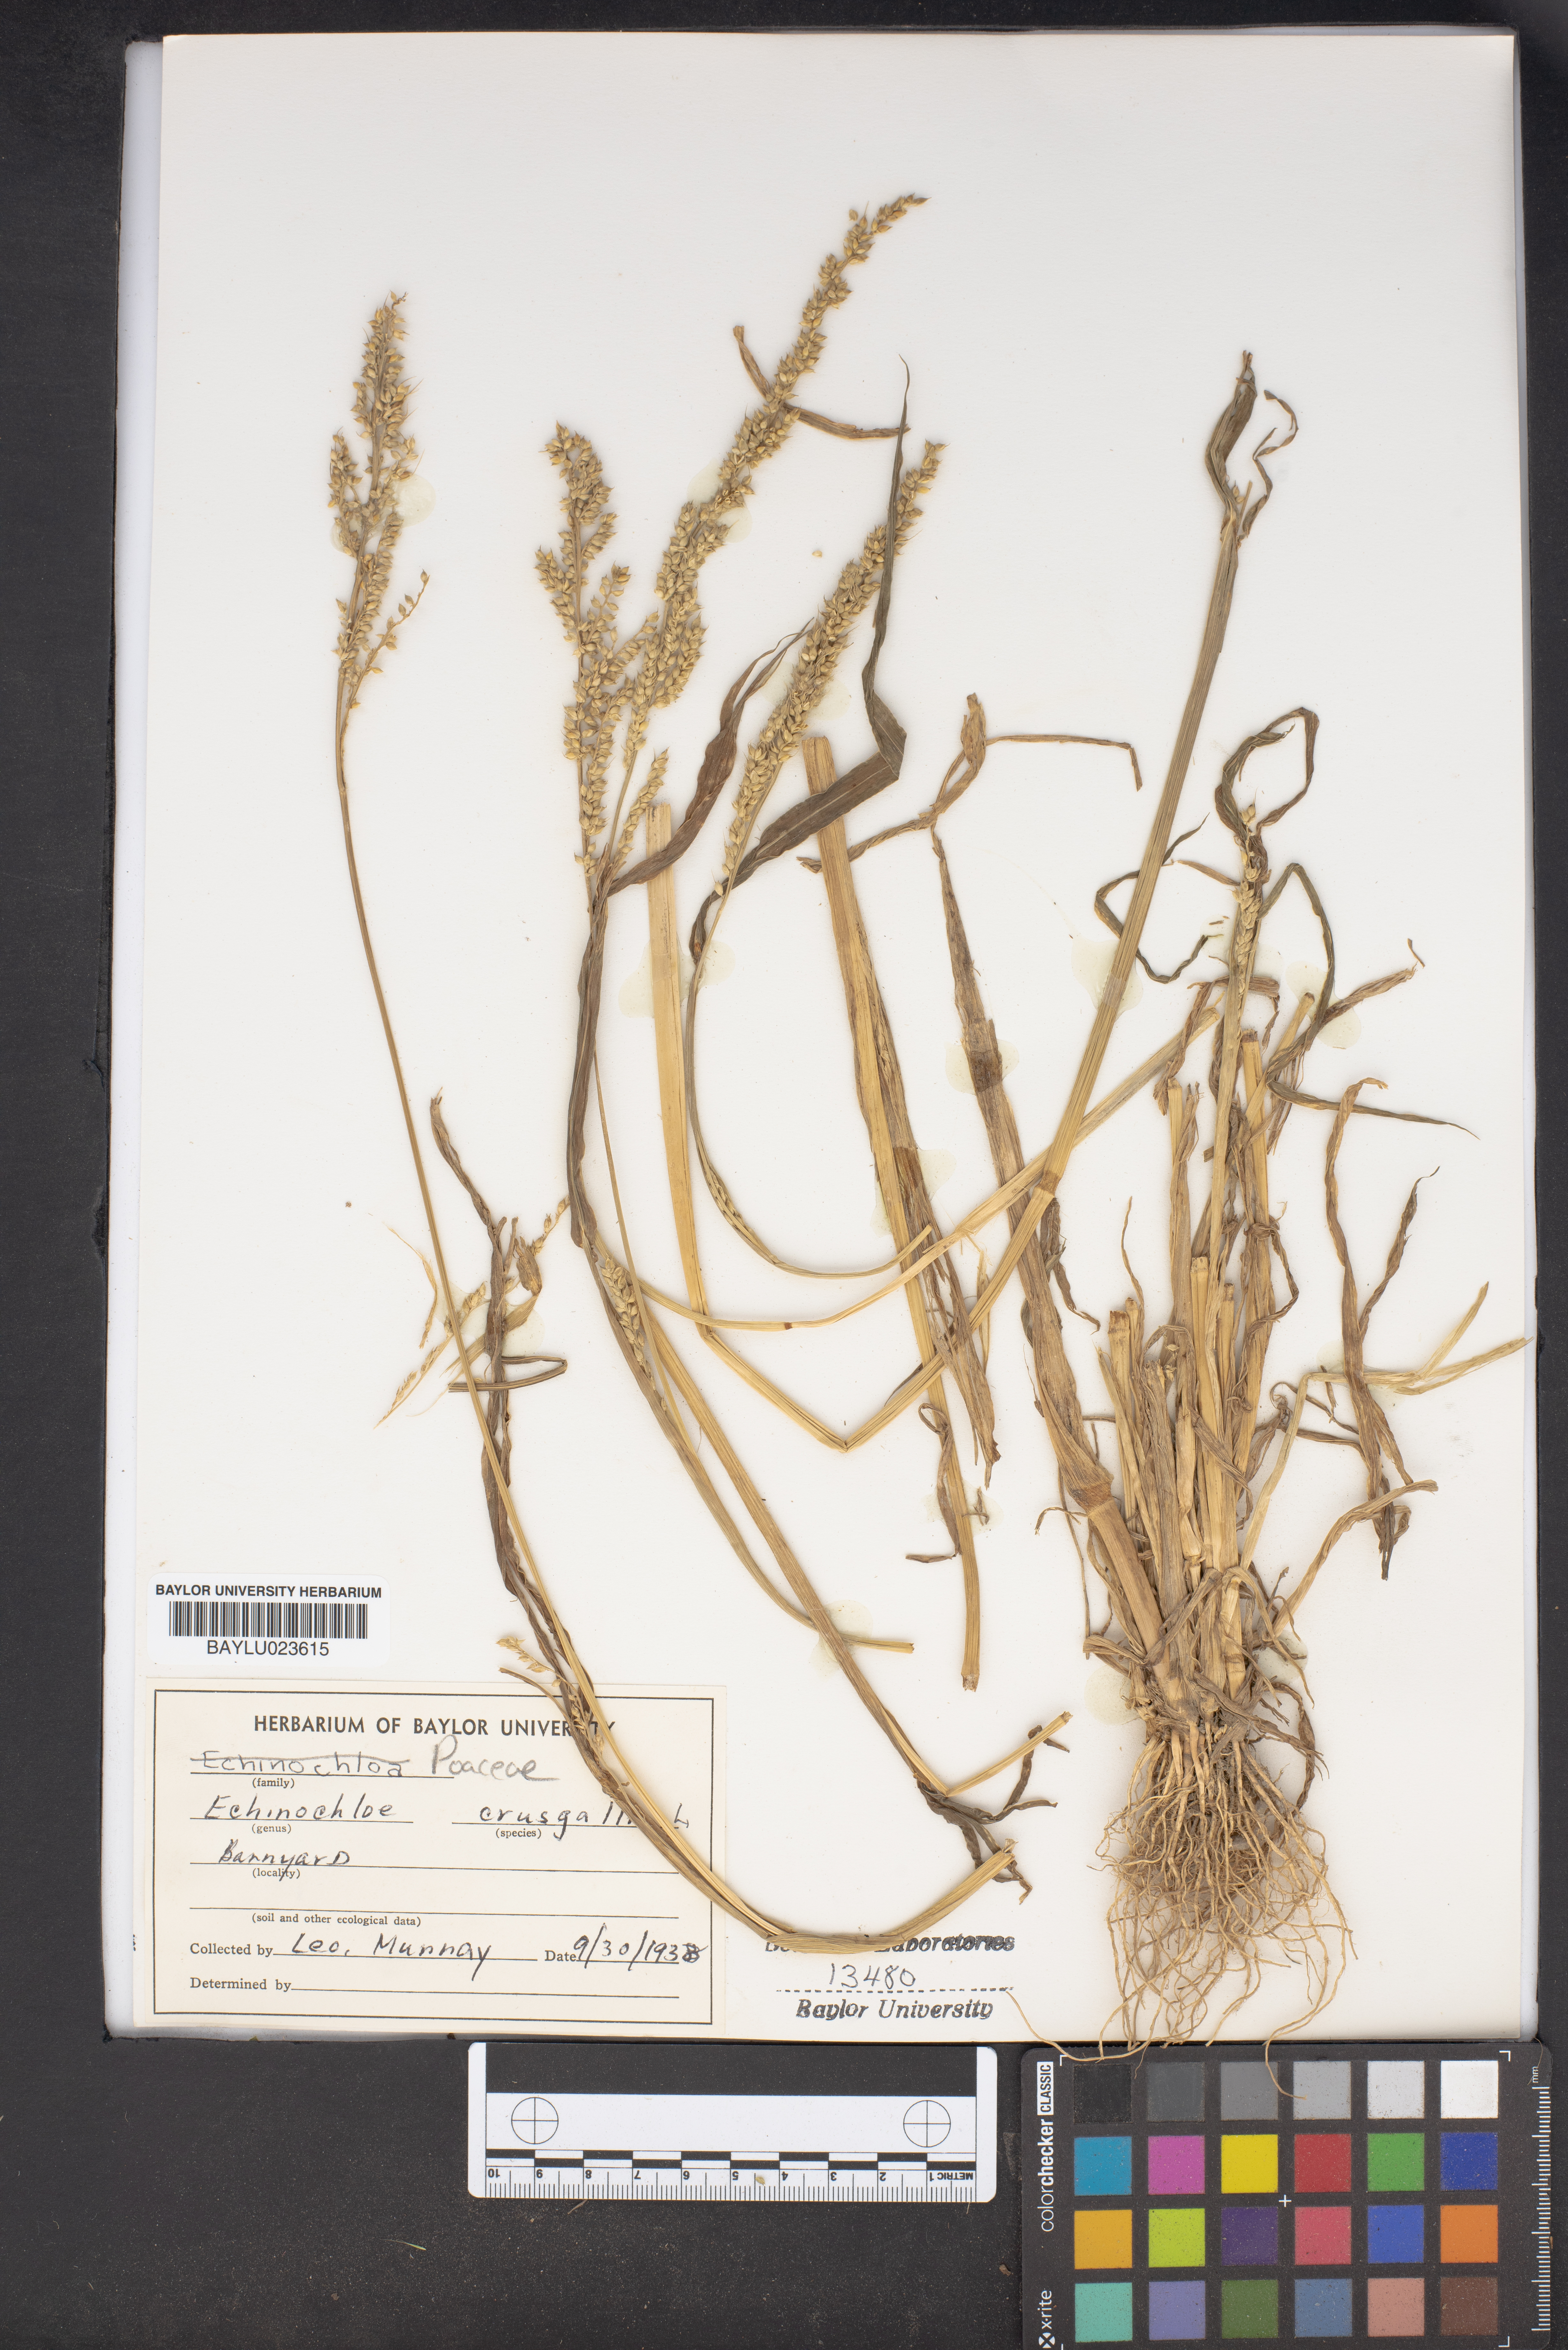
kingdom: Plantae
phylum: Tracheophyta
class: Liliopsida
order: Poales
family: Poaceae
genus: Echinochloa
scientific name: Echinochloa crus-galli
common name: Cockspur
